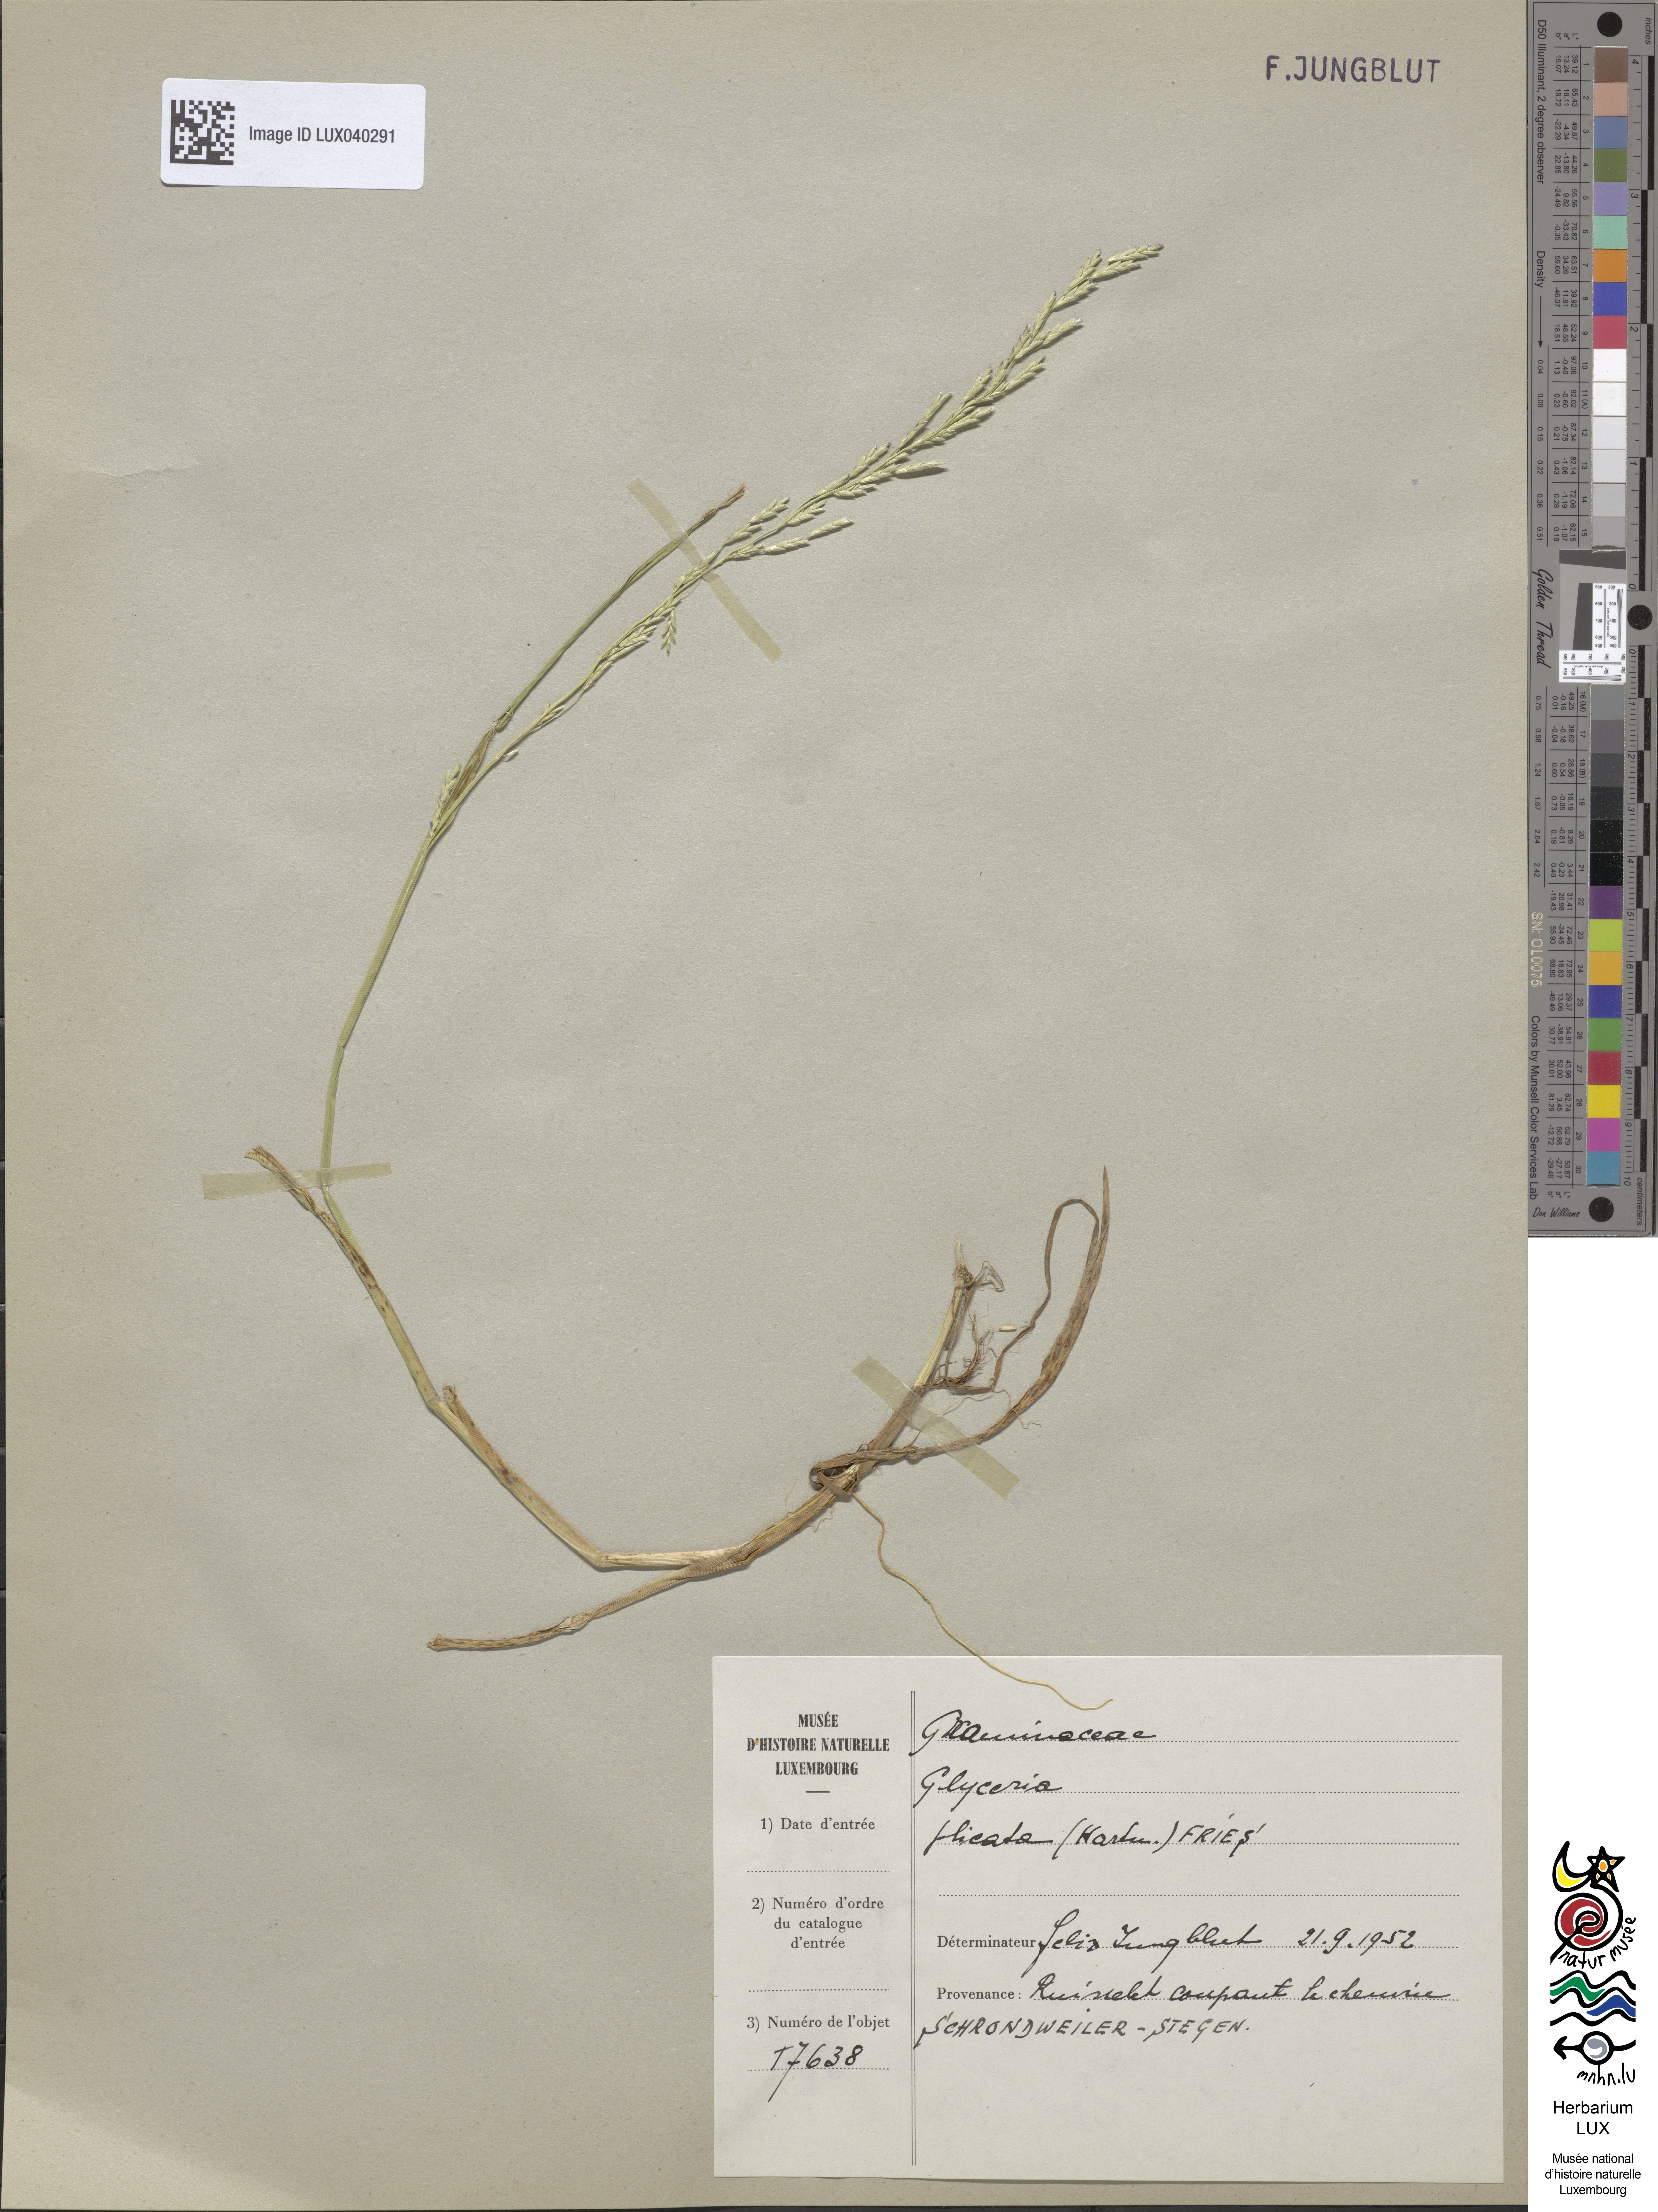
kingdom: Plantae
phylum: Tracheophyta
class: Liliopsida
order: Poales
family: Poaceae
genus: Glyceria
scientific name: Glyceria notata
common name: Plicate sweet-grass
